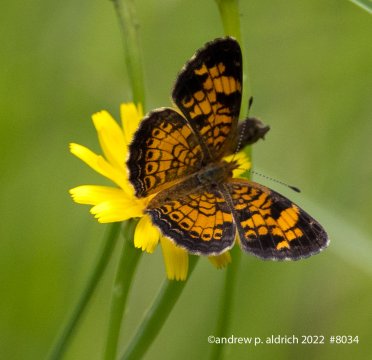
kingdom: Animalia
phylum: Arthropoda
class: Insecta
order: Lepidoptera
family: Nymphalidae
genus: Phyciodes
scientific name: Phyciodes tharos
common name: Pearl Crescent
